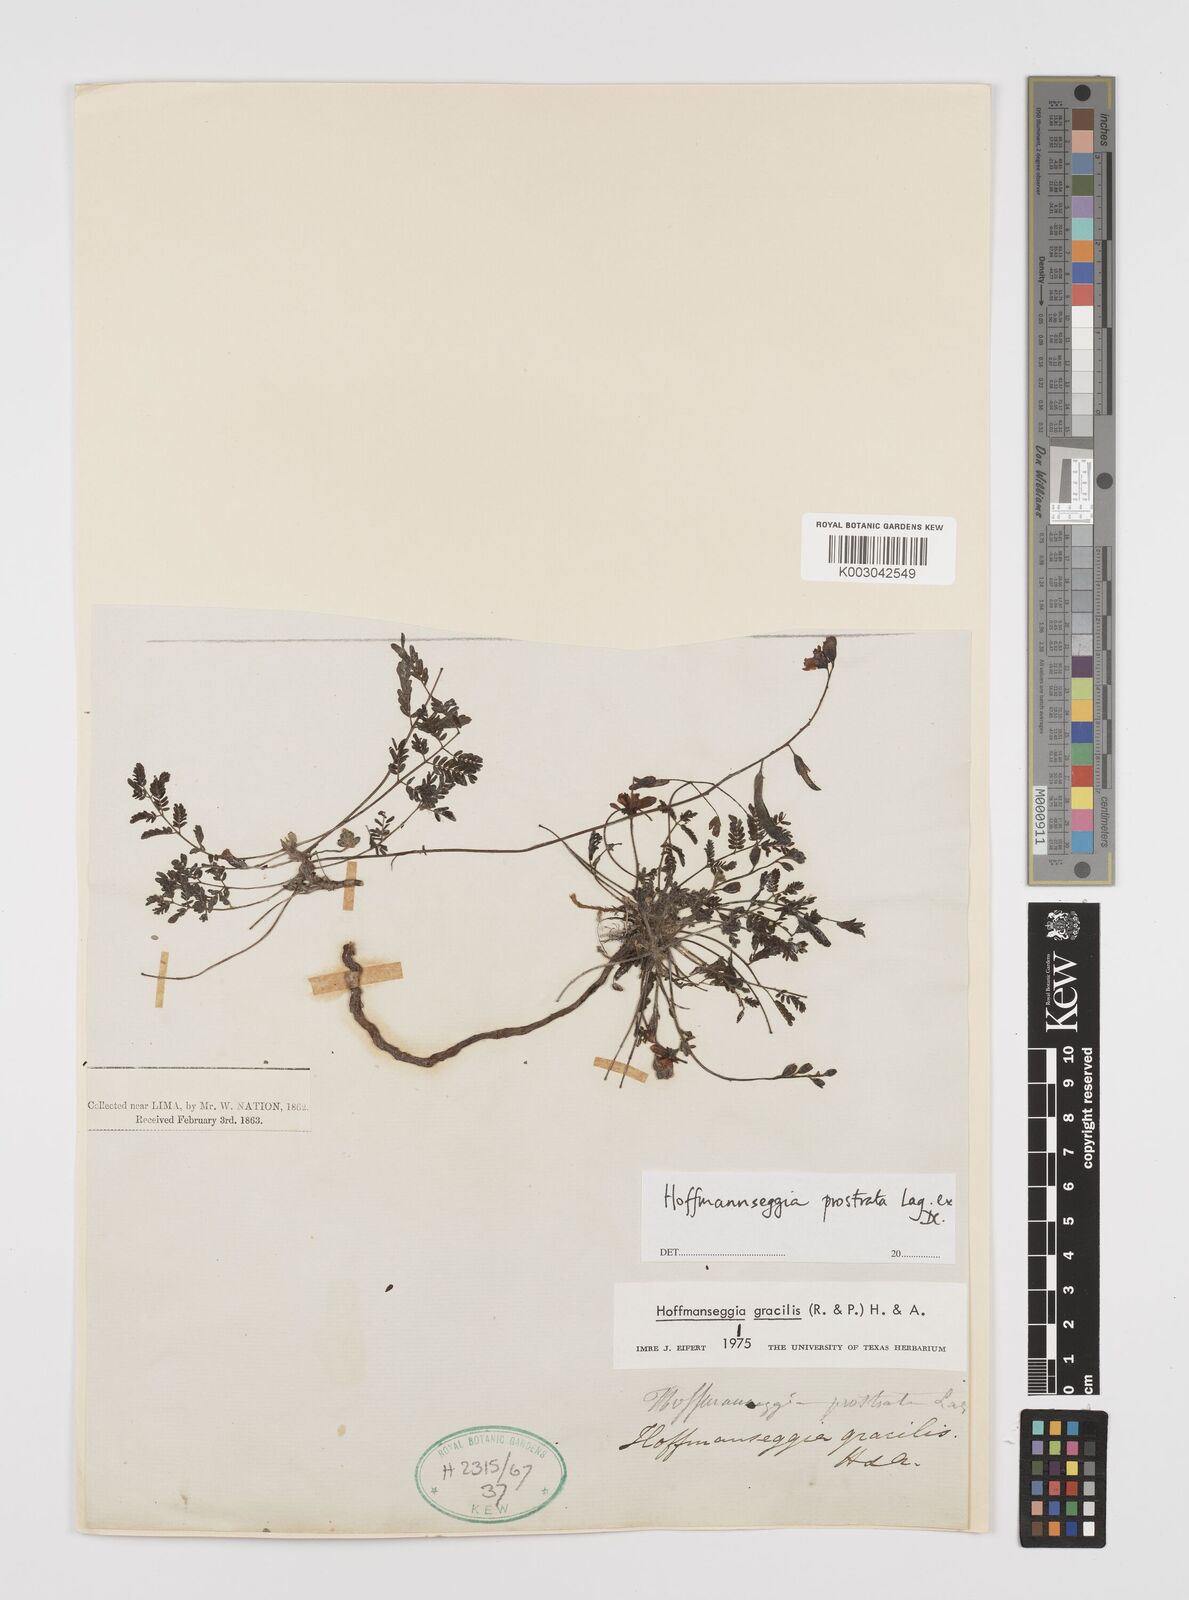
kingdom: Plantae
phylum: Tracheophyta
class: Magnoliopsida
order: Fabales
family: Fabaceae
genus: Hoffmannseggia
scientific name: Hoffmannseggia prostrata
